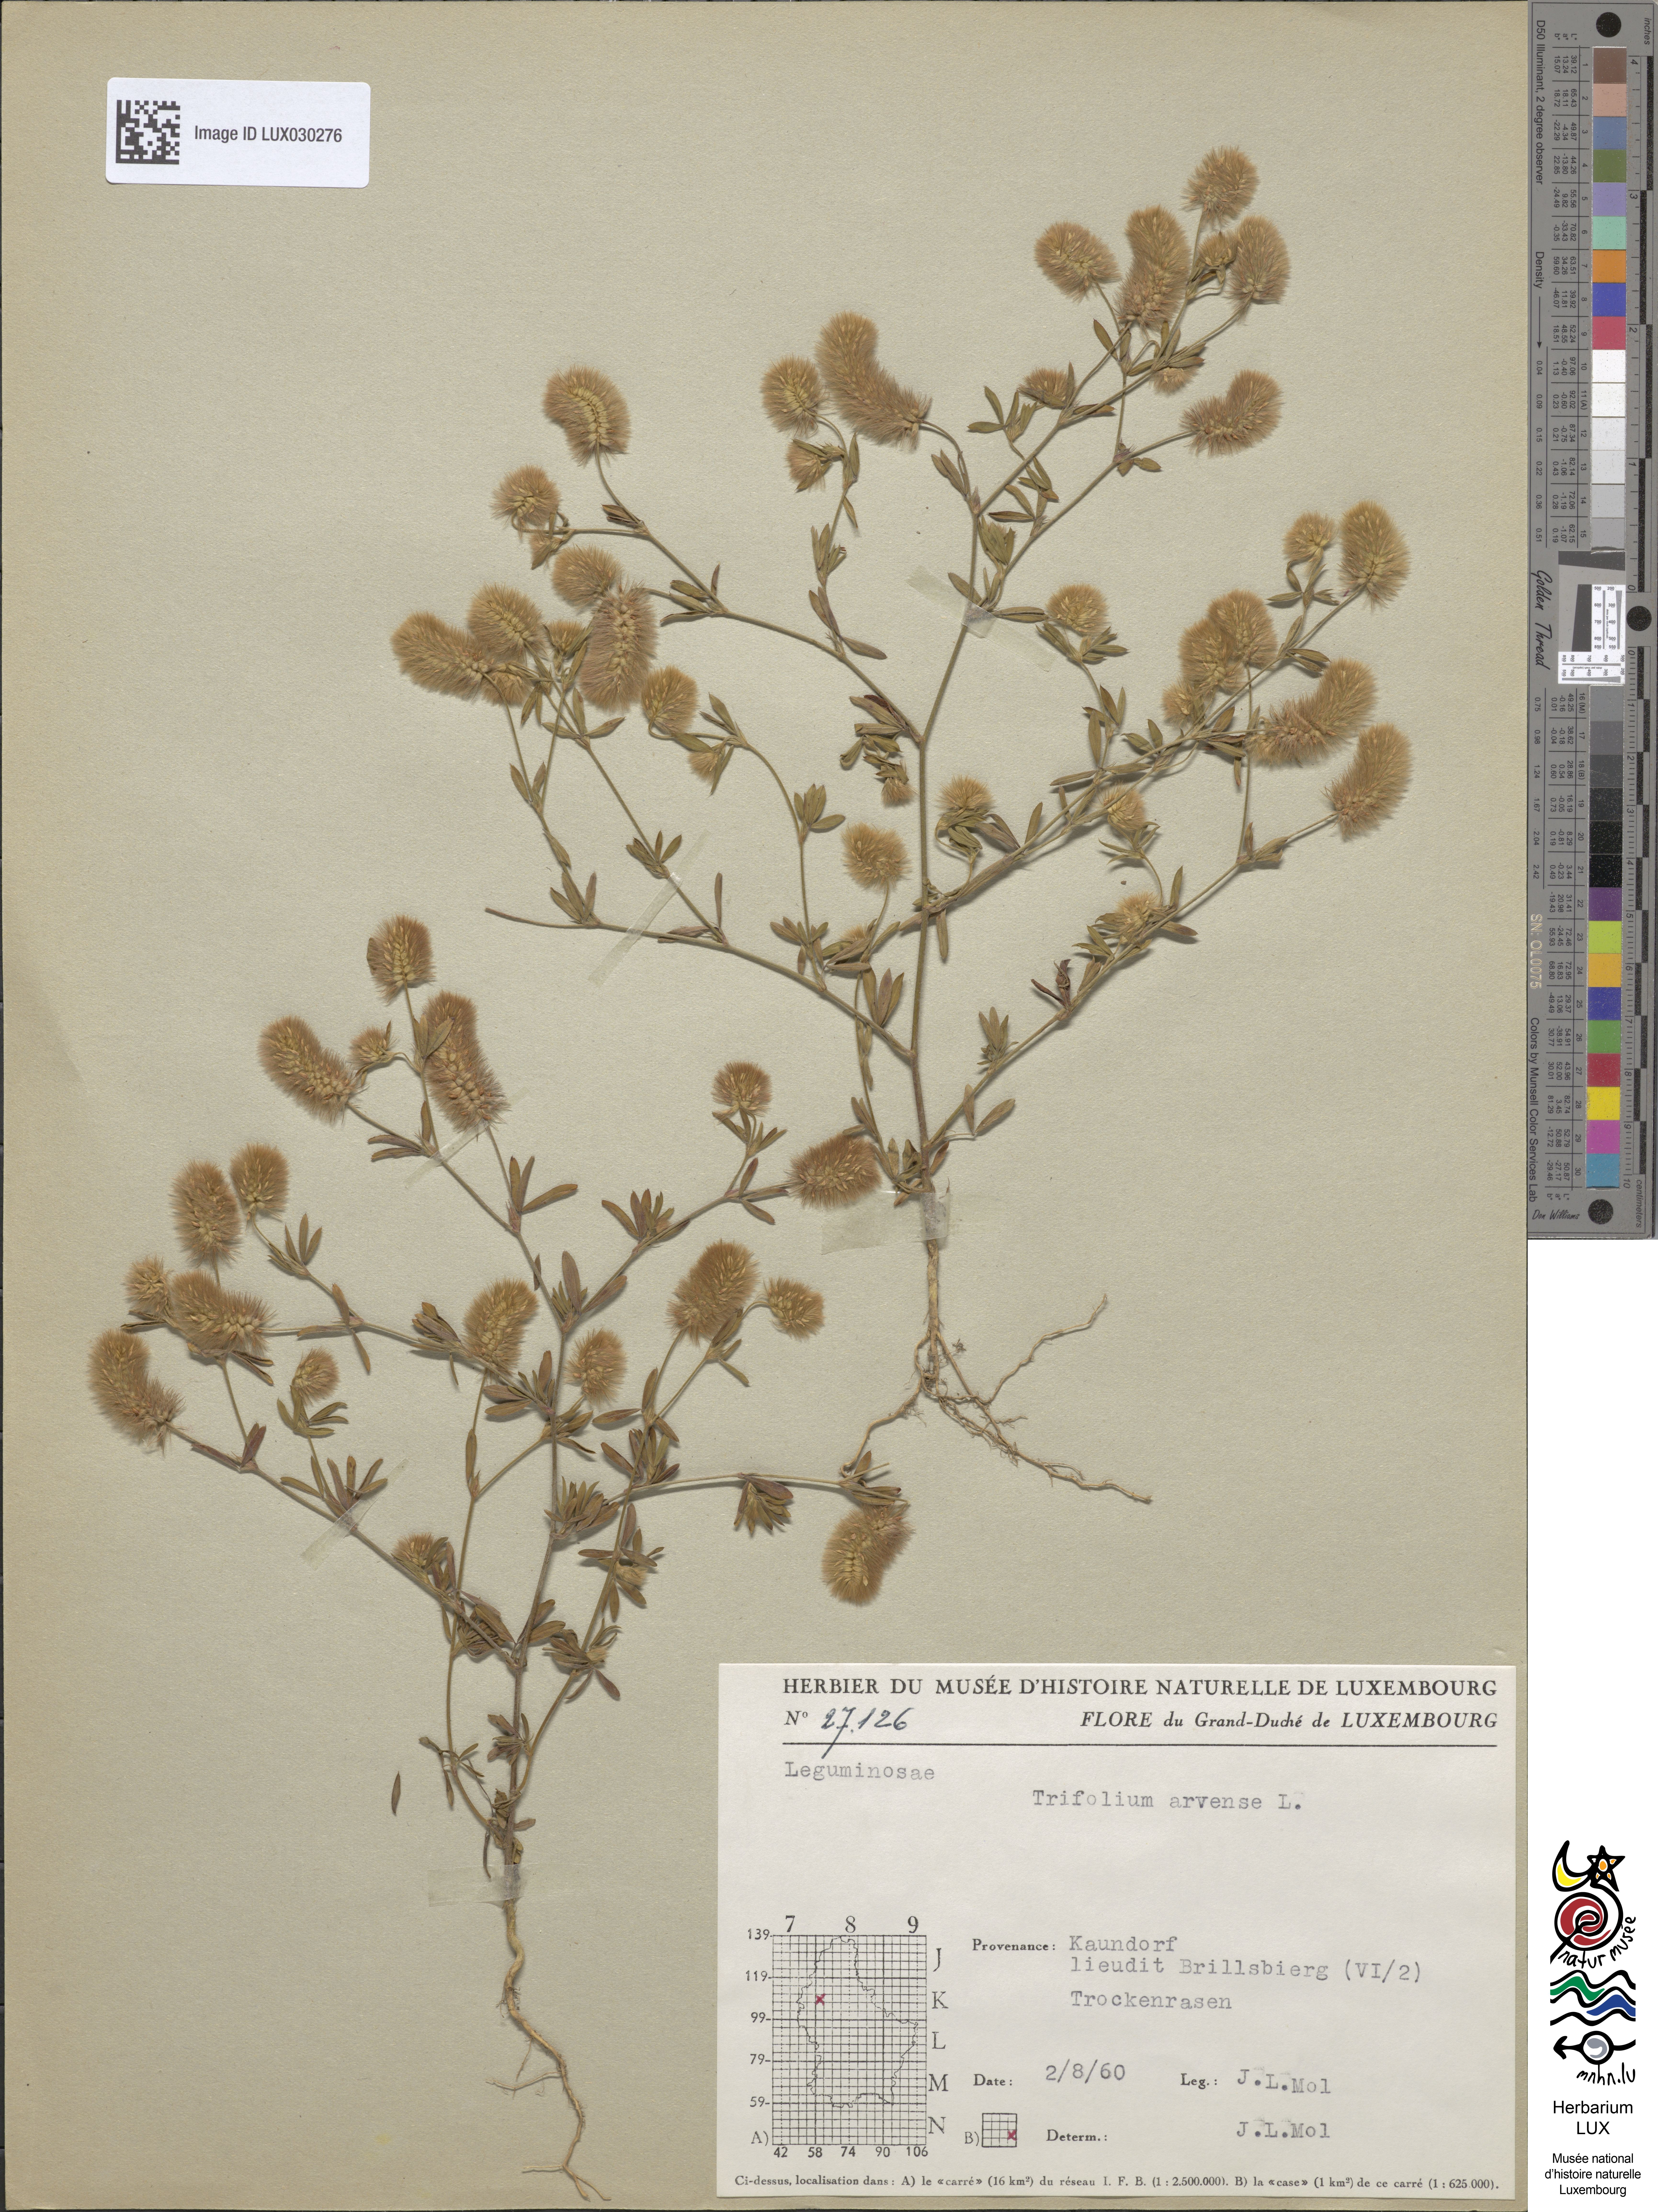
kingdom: Plantae
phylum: Tracheophyta
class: Magnoliopsida
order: Fabales
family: Fabaceae
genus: Trifolium
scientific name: Trifolium arvense
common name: Hare's-foot clover
